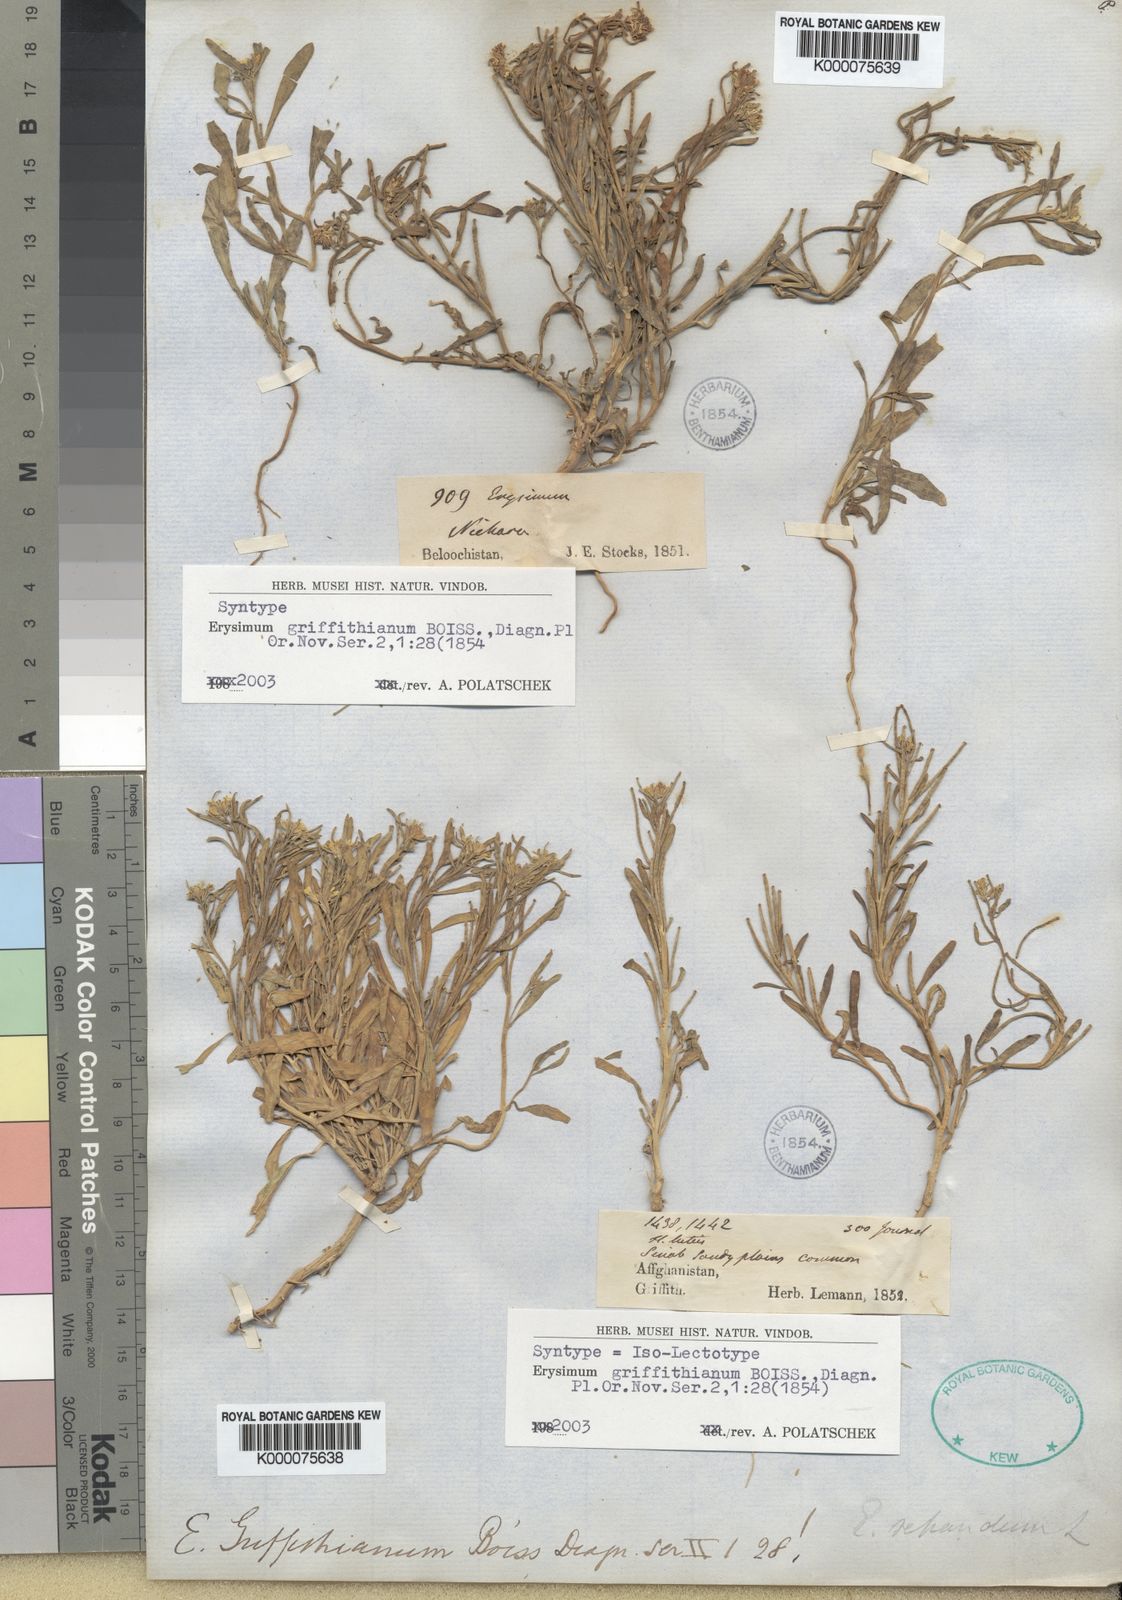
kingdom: Plantae
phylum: Tracheophyta
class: Magnoliopsida
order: Brassicales
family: Brassicaceae
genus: Erysimum
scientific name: Erysimum sisymbrioides
